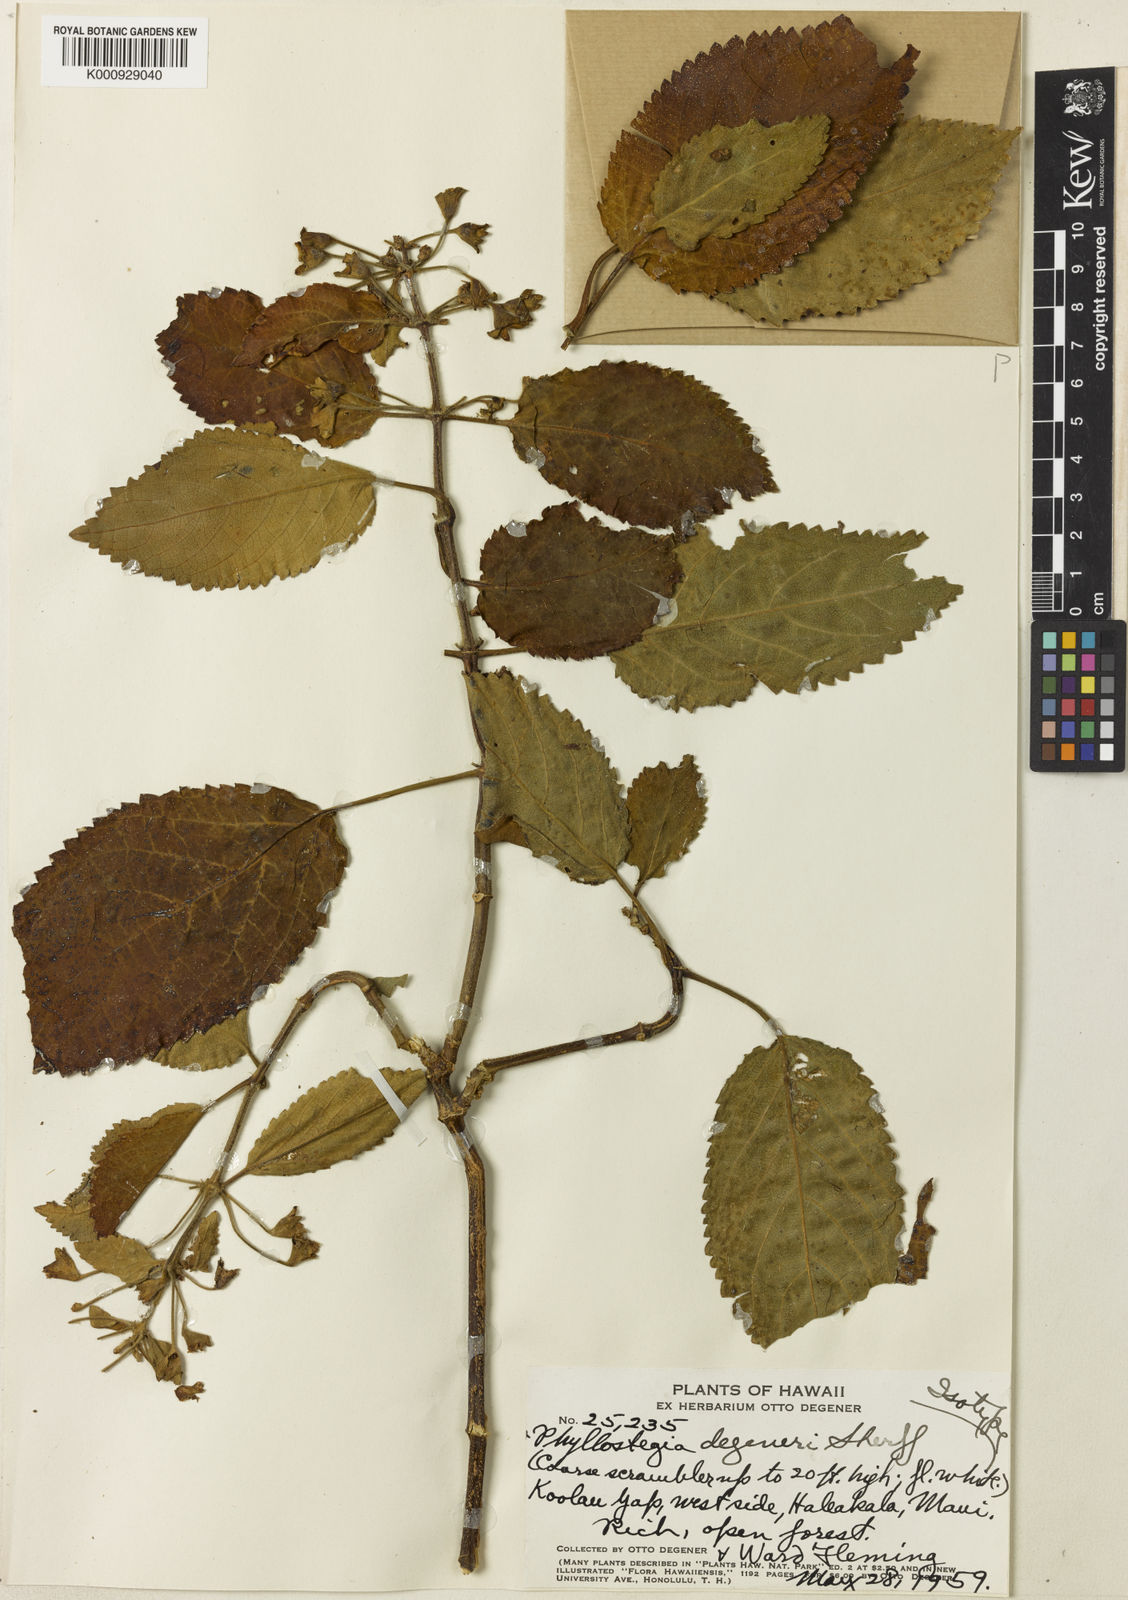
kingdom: Plantae
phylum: Tracheophyta
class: Magnoliopsida
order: Lamiales
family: Lamiaceae
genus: Phyllostegia
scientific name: Phyllostegia ambigua
